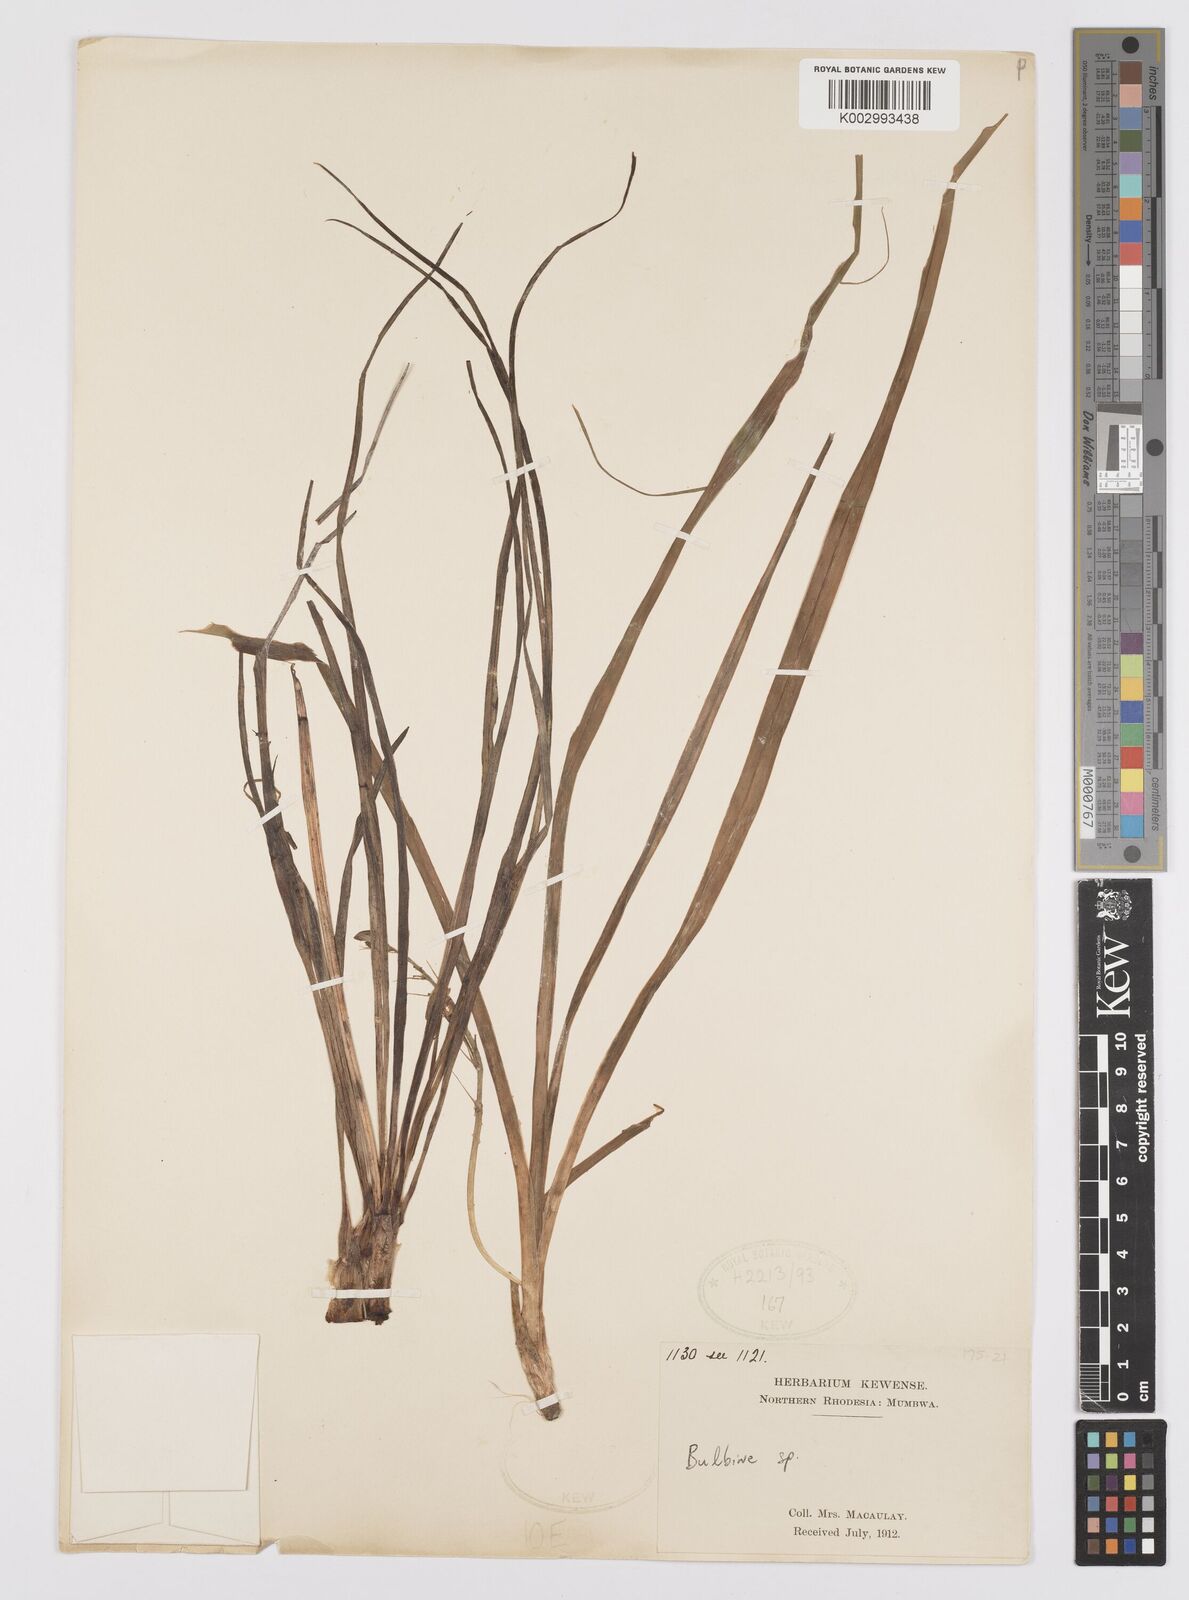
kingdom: Plantae
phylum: Tracheophyta
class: Liliopsida
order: Asparagales
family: Asphodelaceae
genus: Bulbine
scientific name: Bulbine
